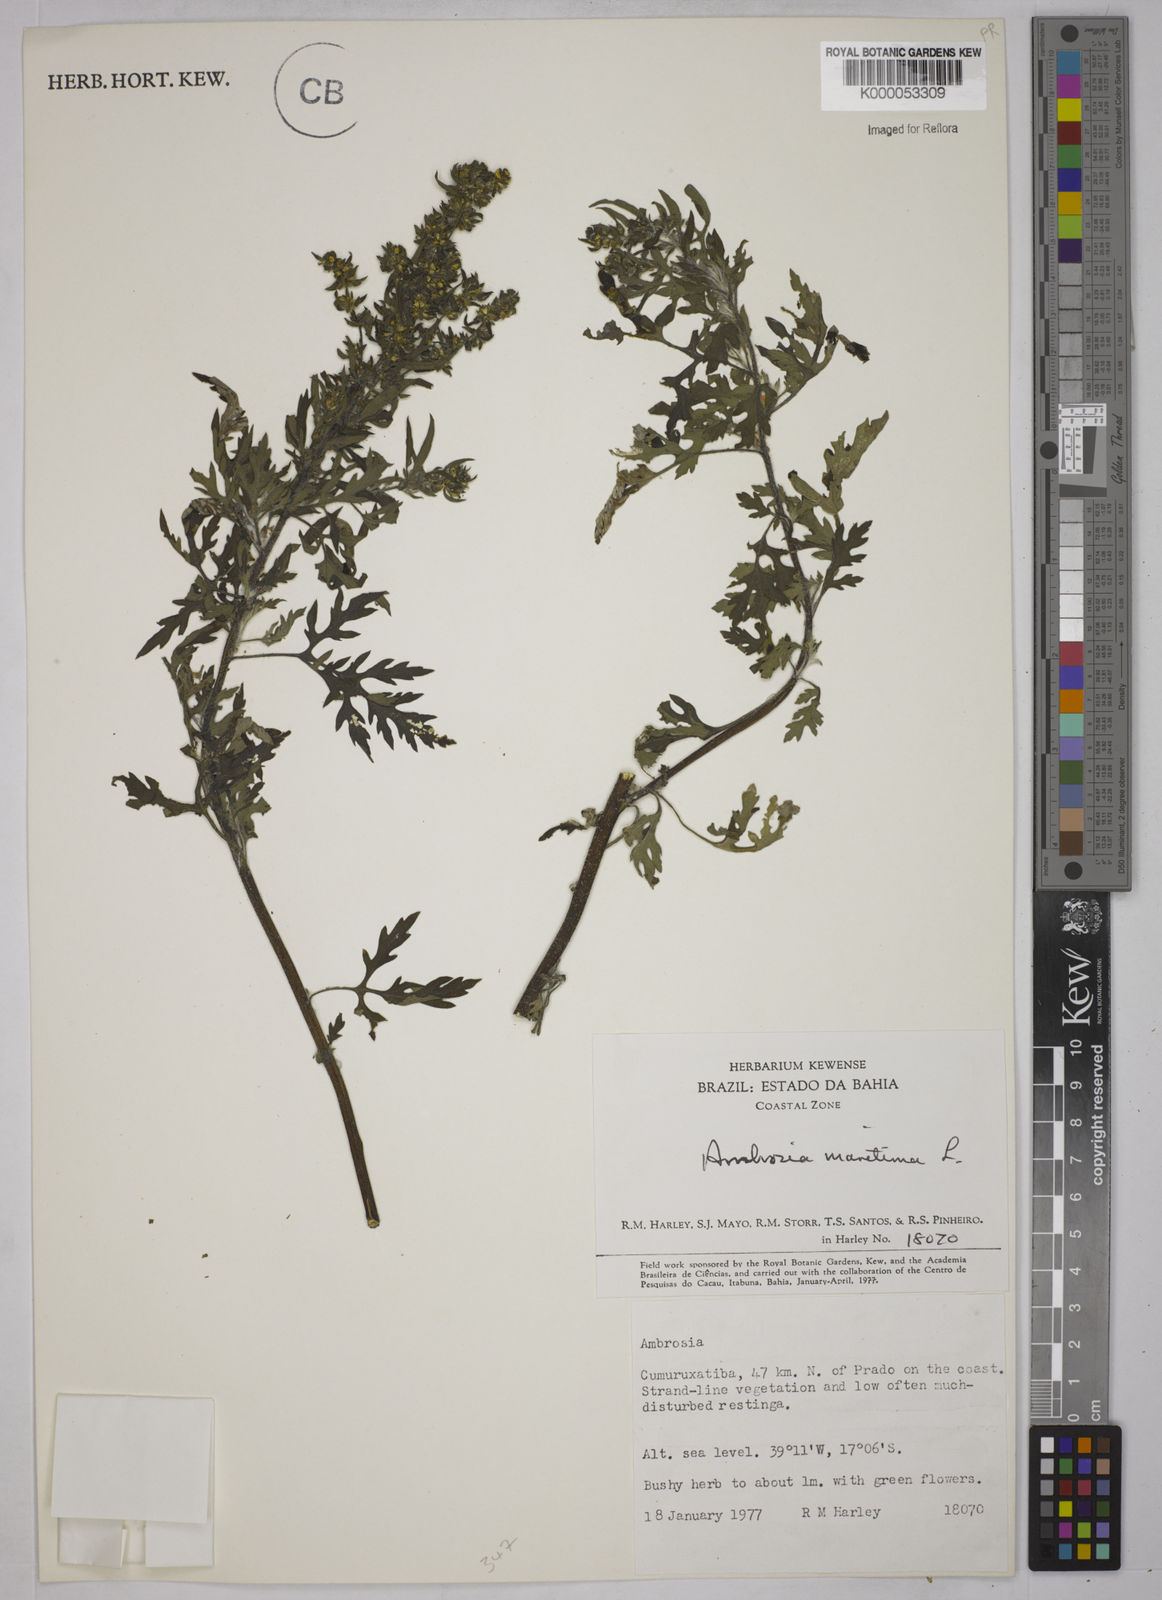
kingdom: Plantae
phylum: Tracheophyta
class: Magnoliopsida
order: Asterales
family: Asteraceae
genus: Ambrosia
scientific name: Ambrosia maritima
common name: Sea ambrosia
